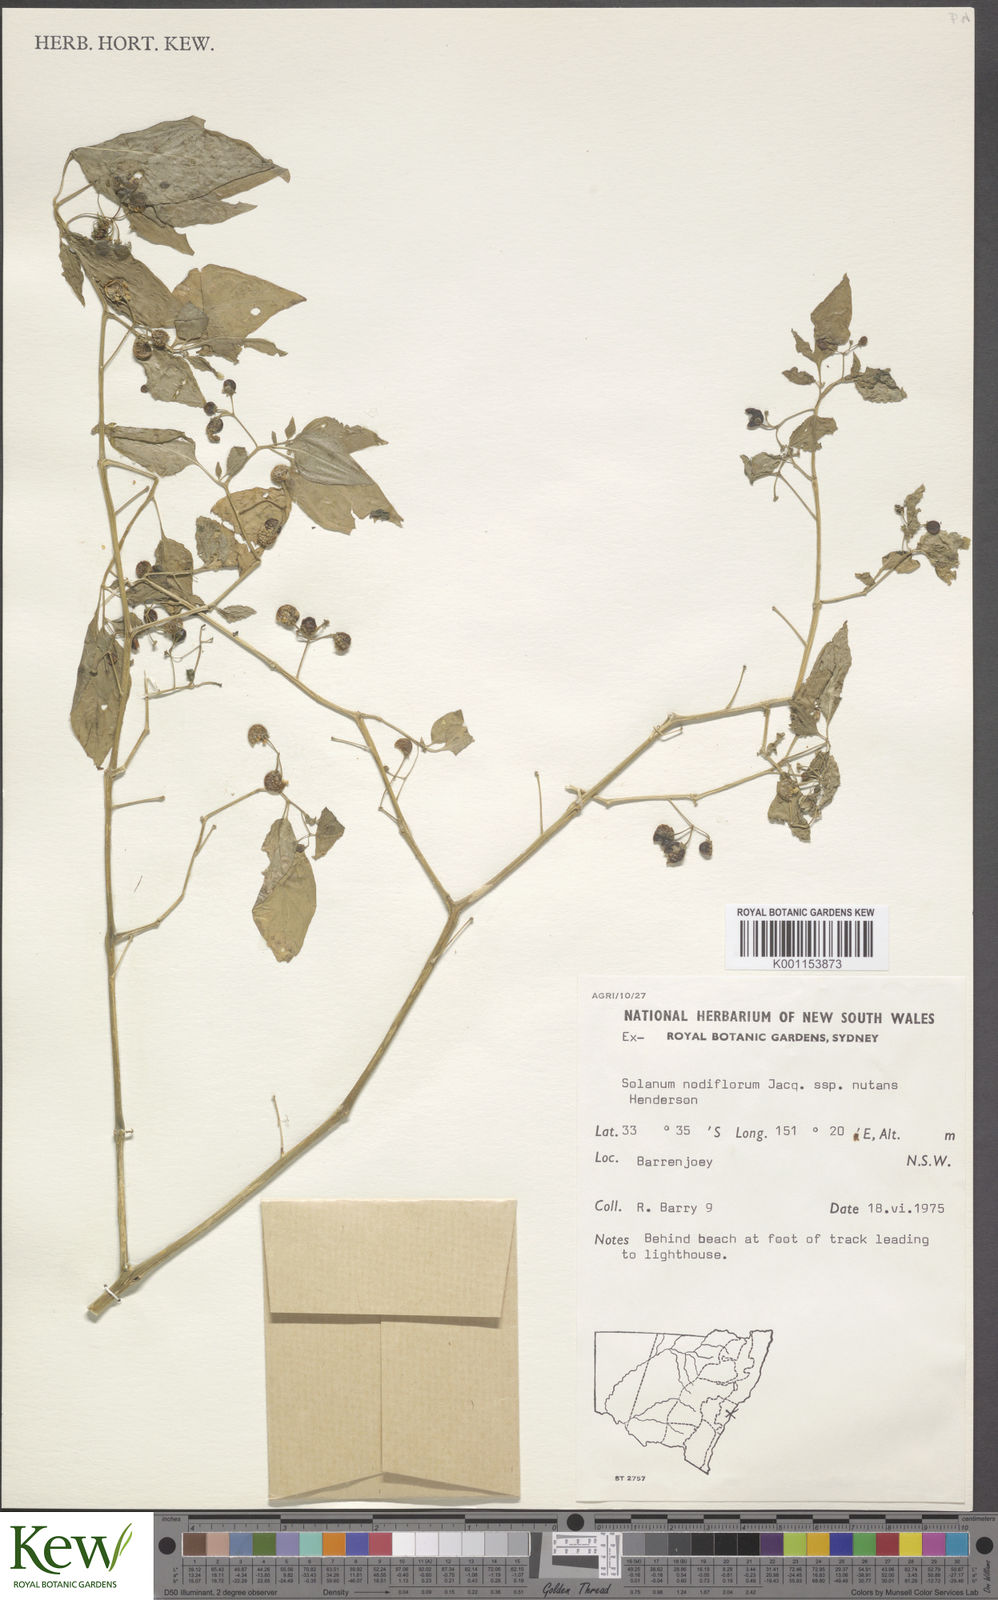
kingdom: Plantae
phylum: Tracheophyta
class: Magnoliopsida
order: Solanales
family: Solanaceae
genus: Solanum
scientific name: Solanum americanum
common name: American black nightshade
